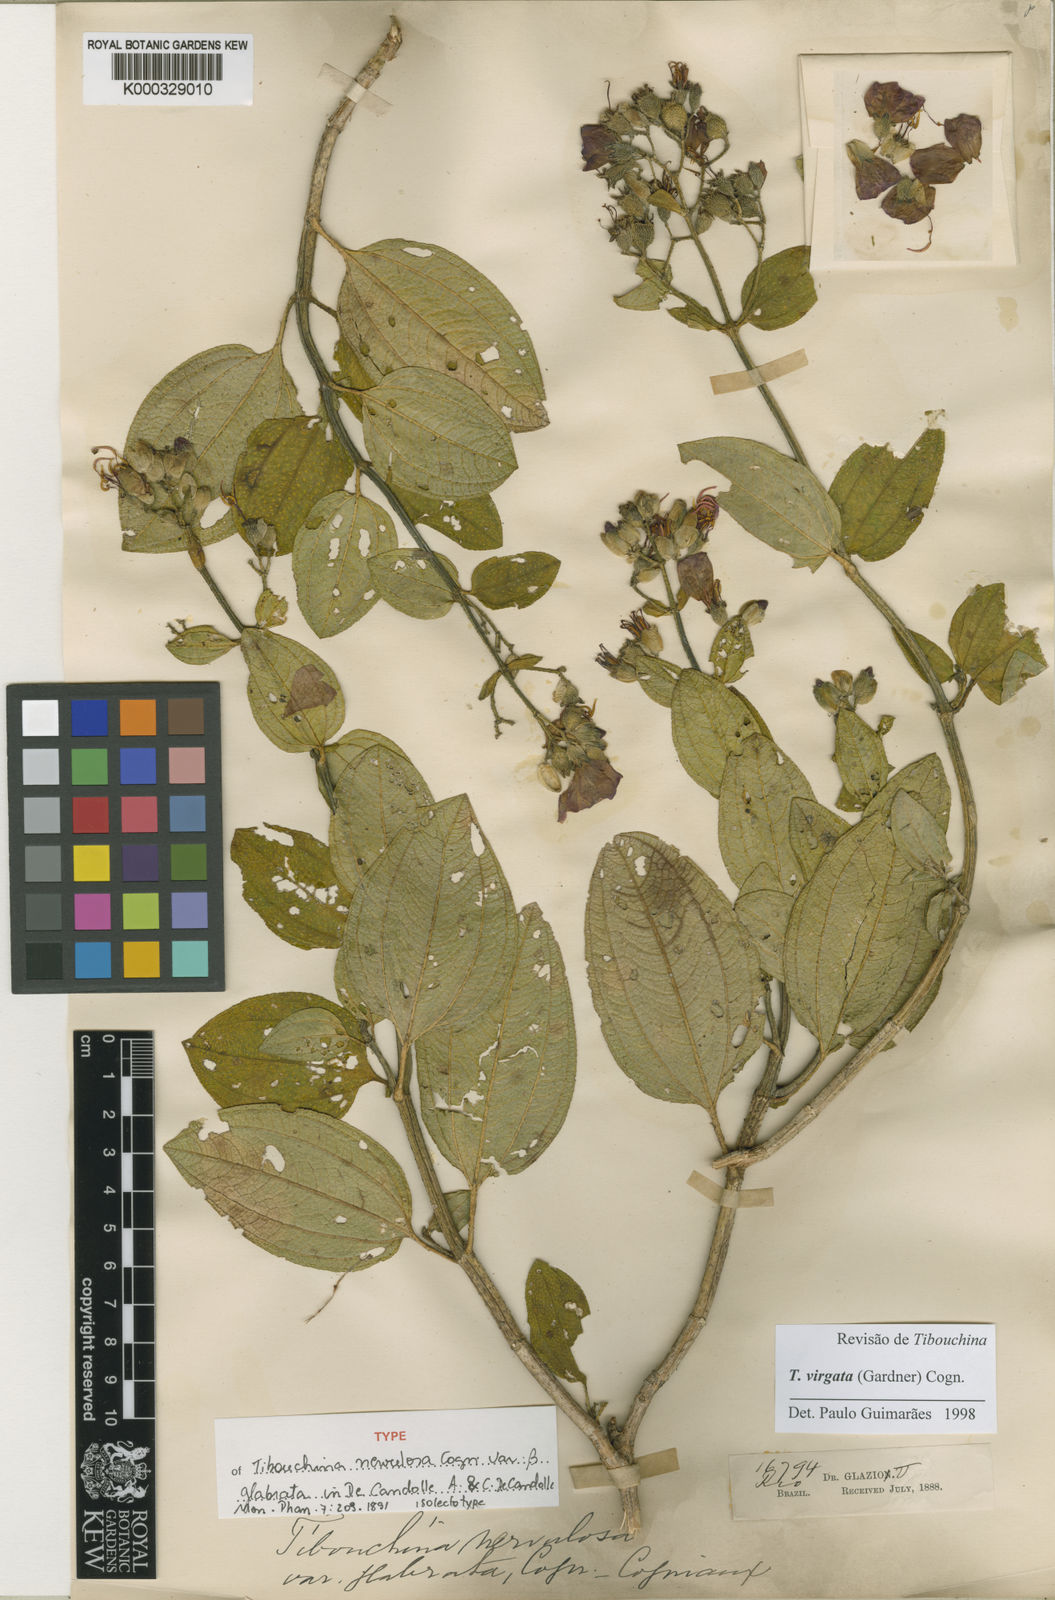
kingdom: Plantae
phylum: Tracheophyta
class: Magnoliopsida
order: Myrtales
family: Melastomataceae
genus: Pleroma
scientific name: Pleroma virgatum
